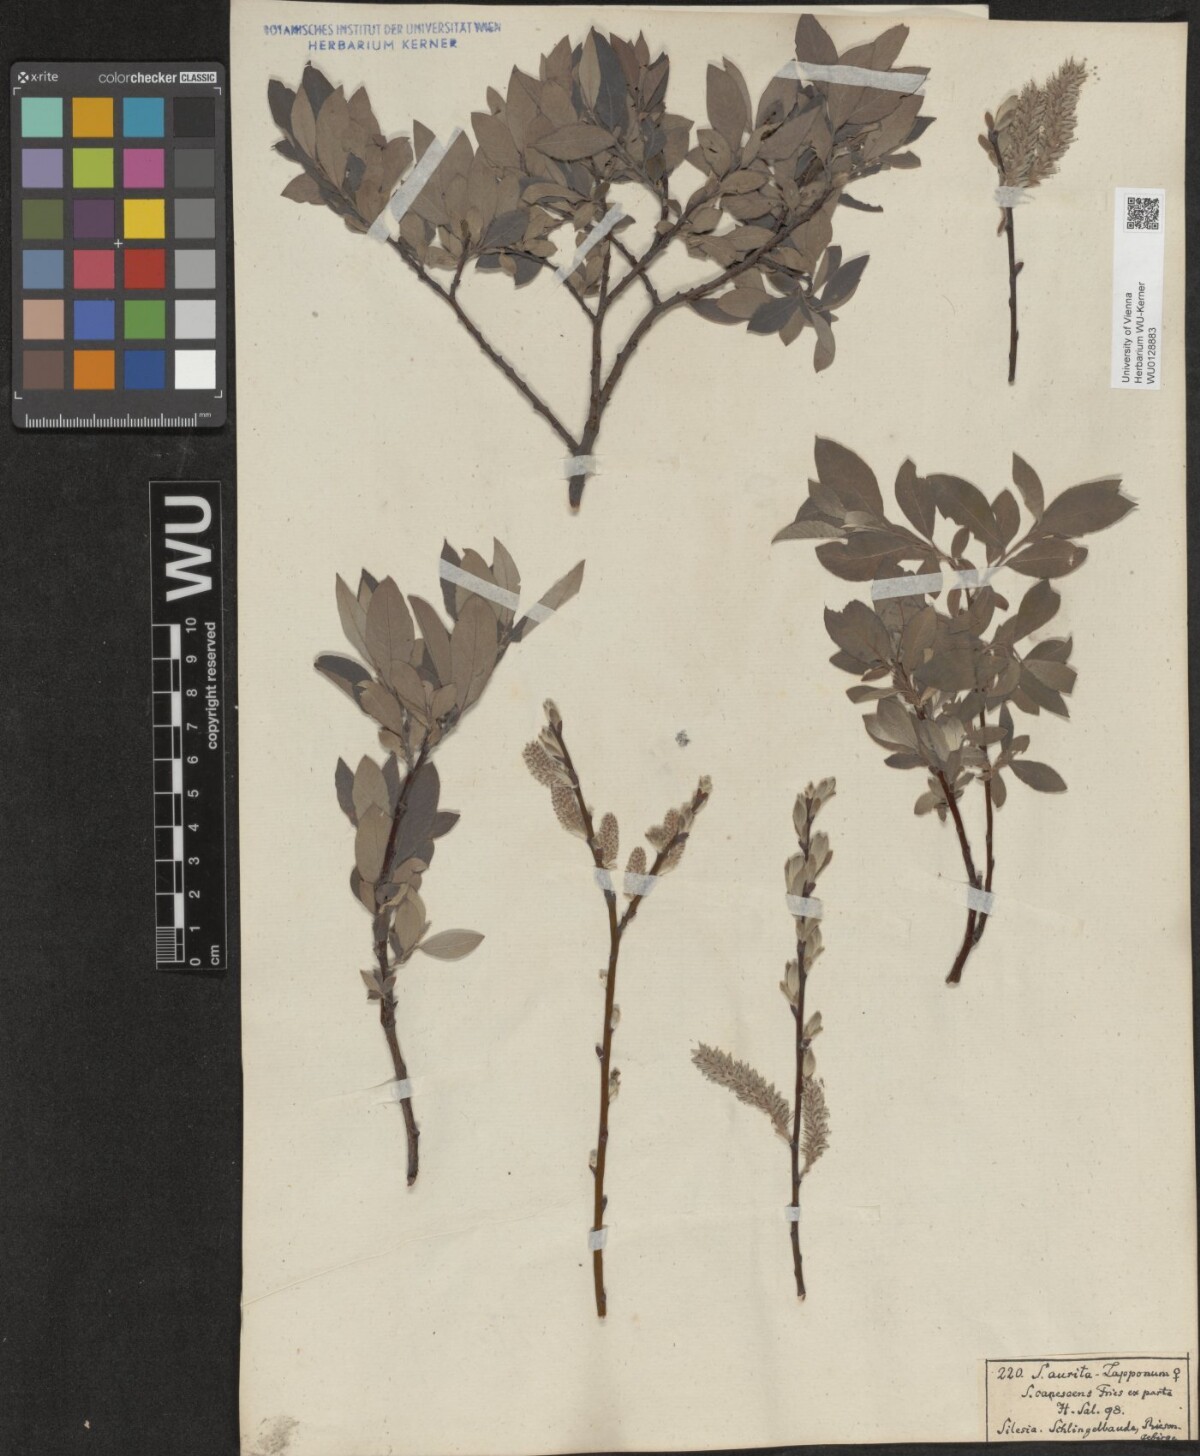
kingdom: Plantae
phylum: Tracheophyta
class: Magnoliopsida
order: Malpighiales
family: Salicaceae
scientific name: Salicaceae
